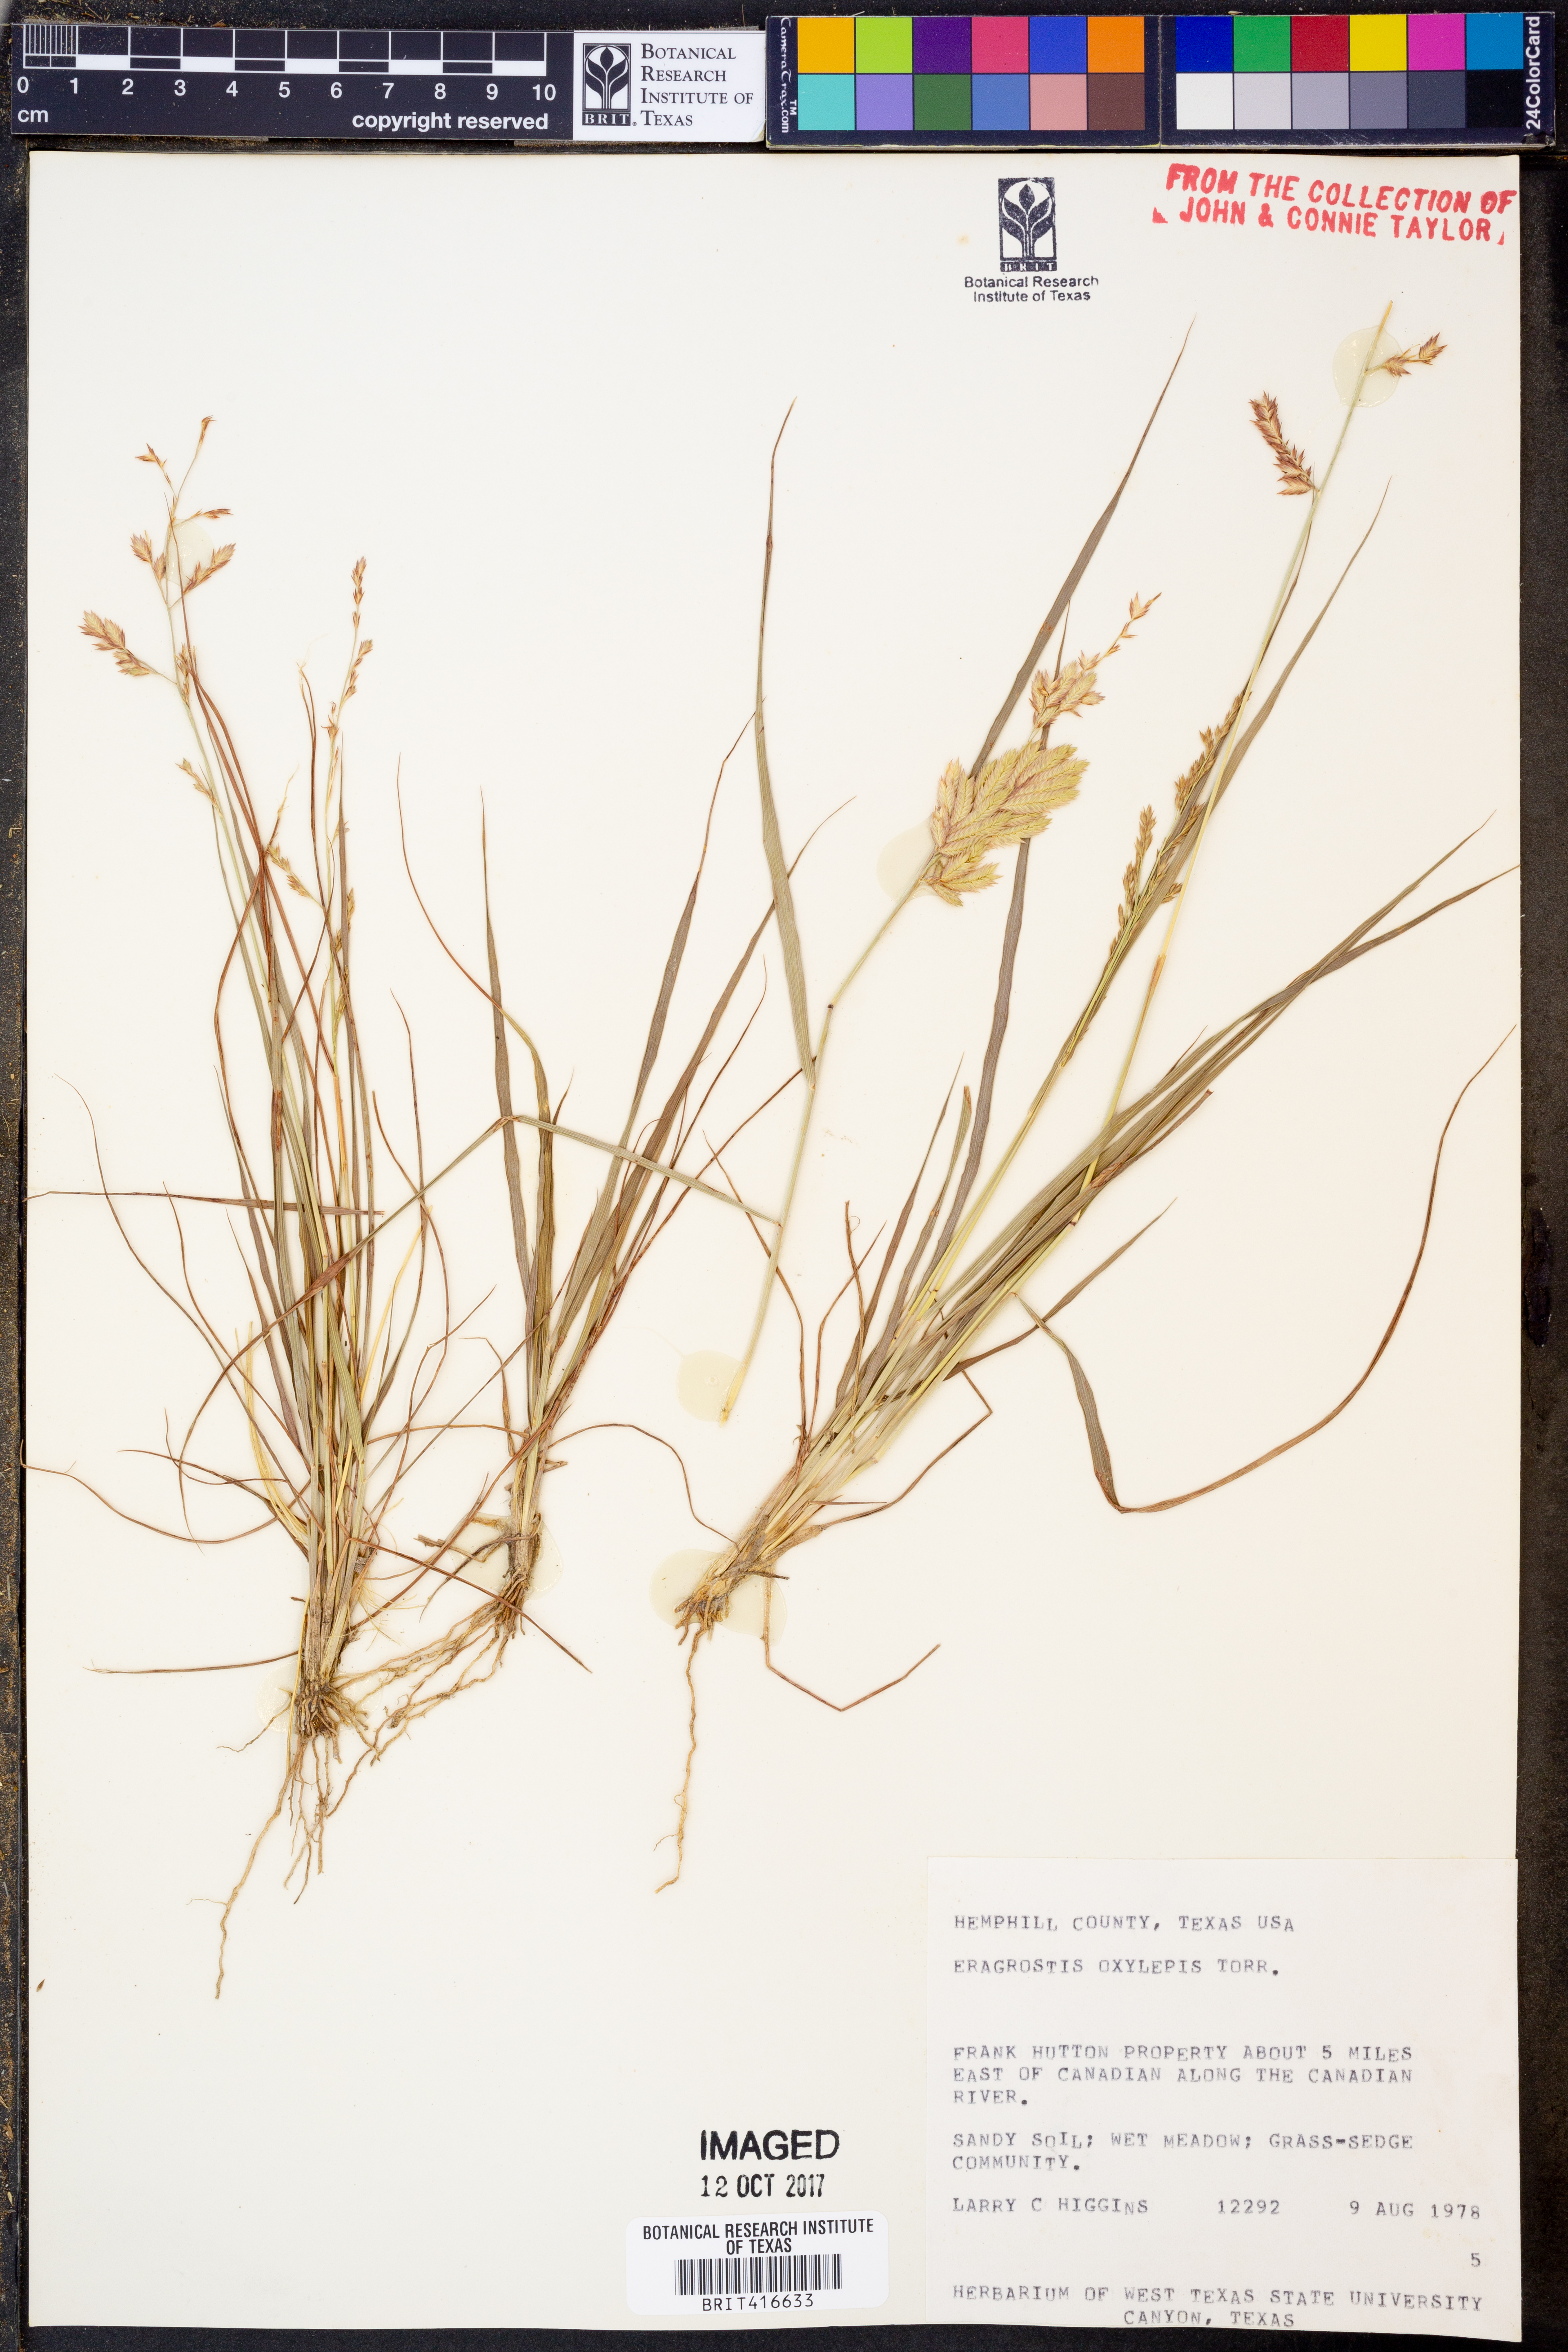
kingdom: Plantae
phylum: Tracheophyta
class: Liliopsida
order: Poales
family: Poaceae
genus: Eragrostis
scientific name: Eragrostis secundiflora
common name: Red love grass
